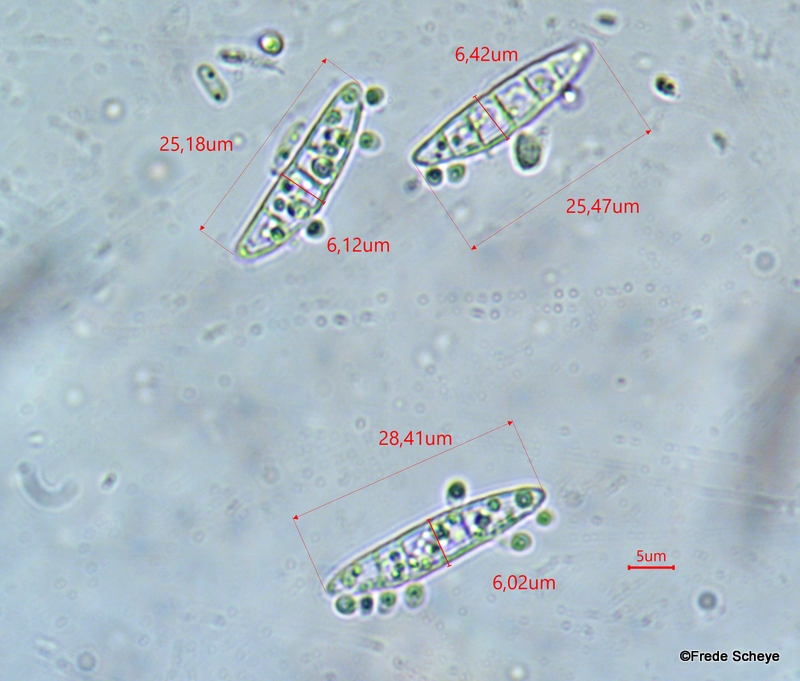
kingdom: Fungi
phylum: Ascomycota
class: Leotiomycetes
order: Helotiales
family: Gelatinodiscaceae
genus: Ascocoryne
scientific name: Ascocoryne cylichnium
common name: stor sejskive
